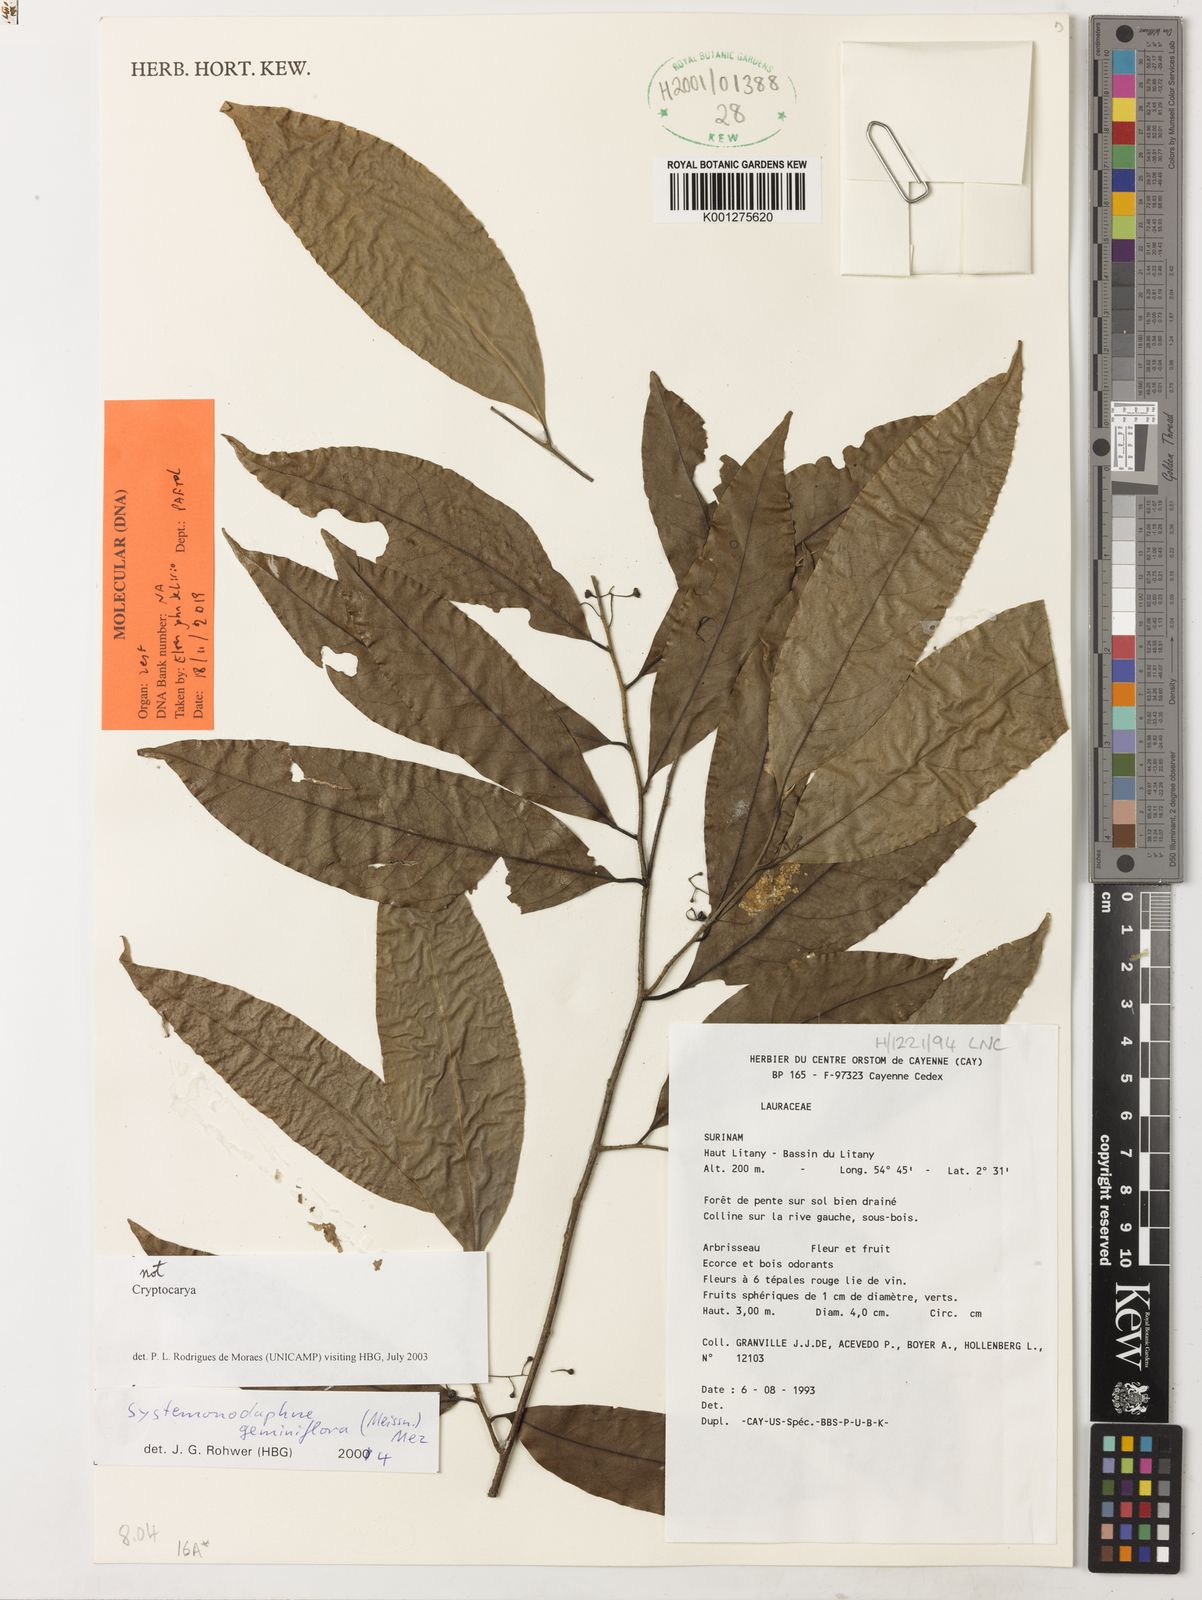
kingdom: Plantae
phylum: Tracheophyta
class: Magnoliopsida
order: Laurales
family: Lauraceae
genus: Systemonodaphne
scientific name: Systemonodaphne
